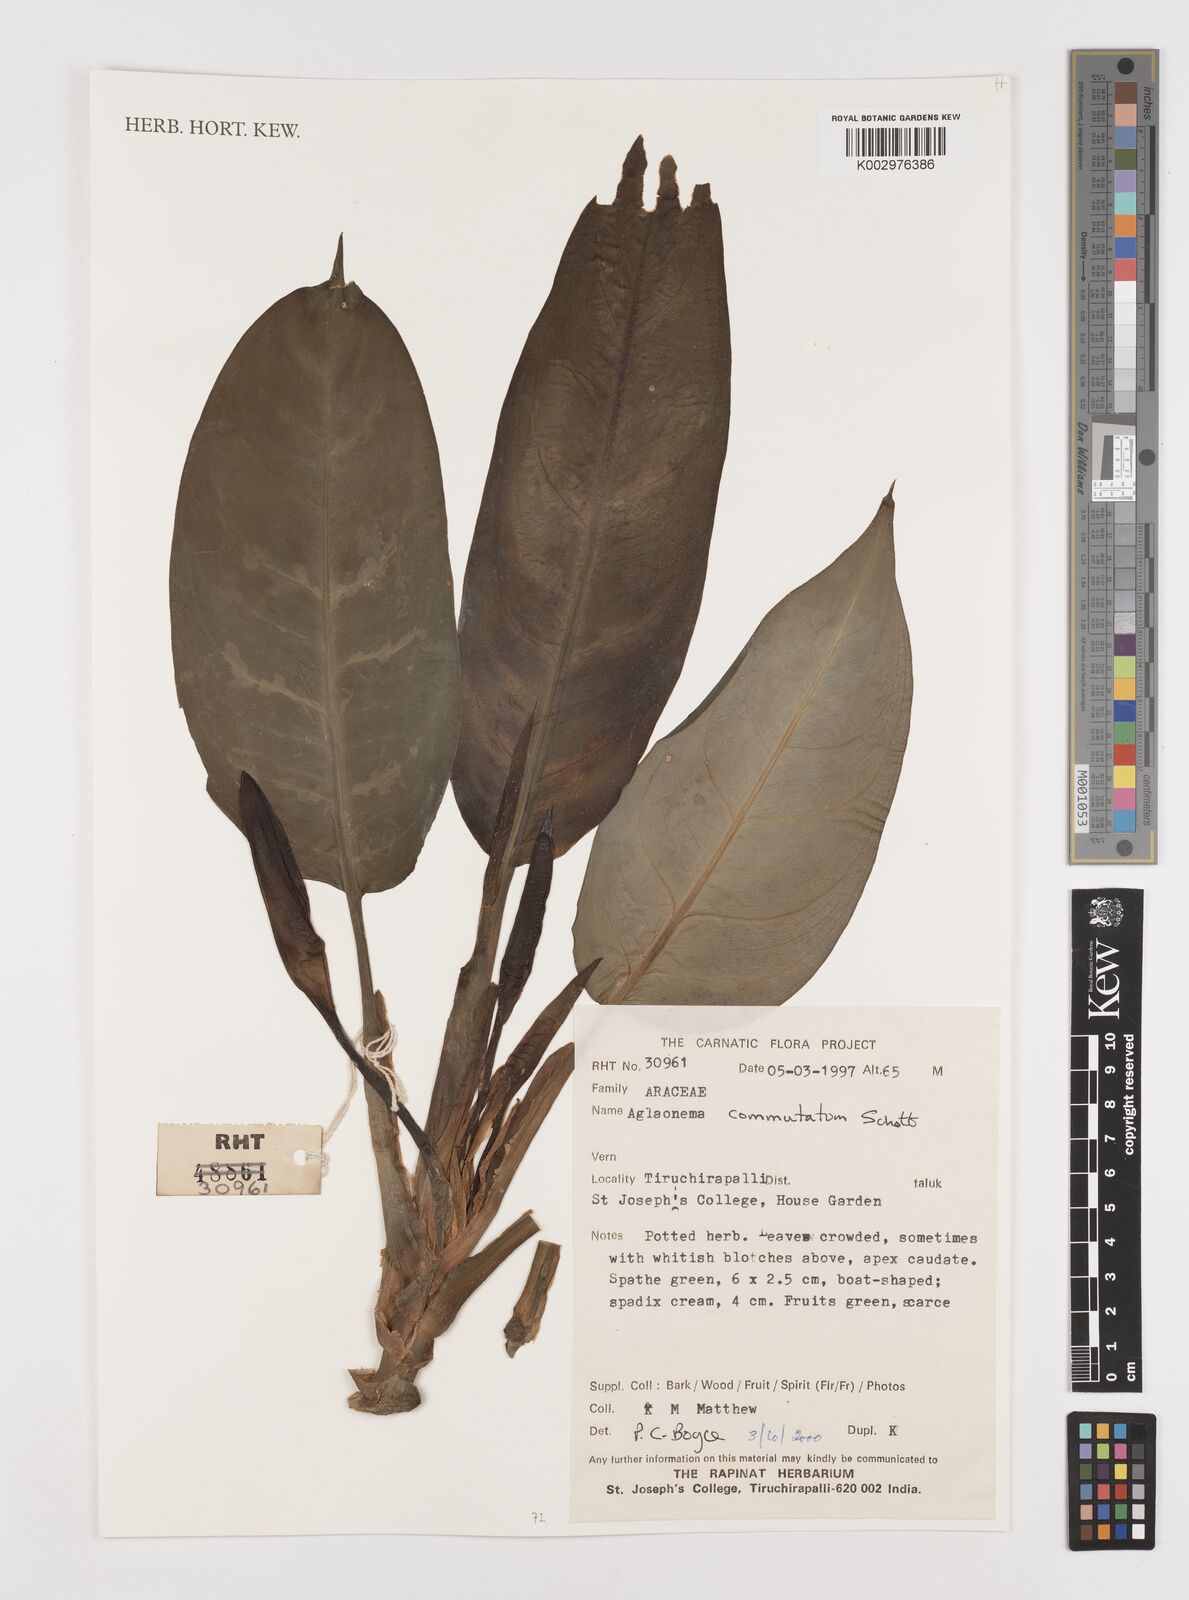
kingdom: Plantae
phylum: Tracheophyta
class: Liliopsida
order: Alismatales
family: Araceae
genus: Aglaonema
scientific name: Aglaonema commutatum
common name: Philippine evergreen
